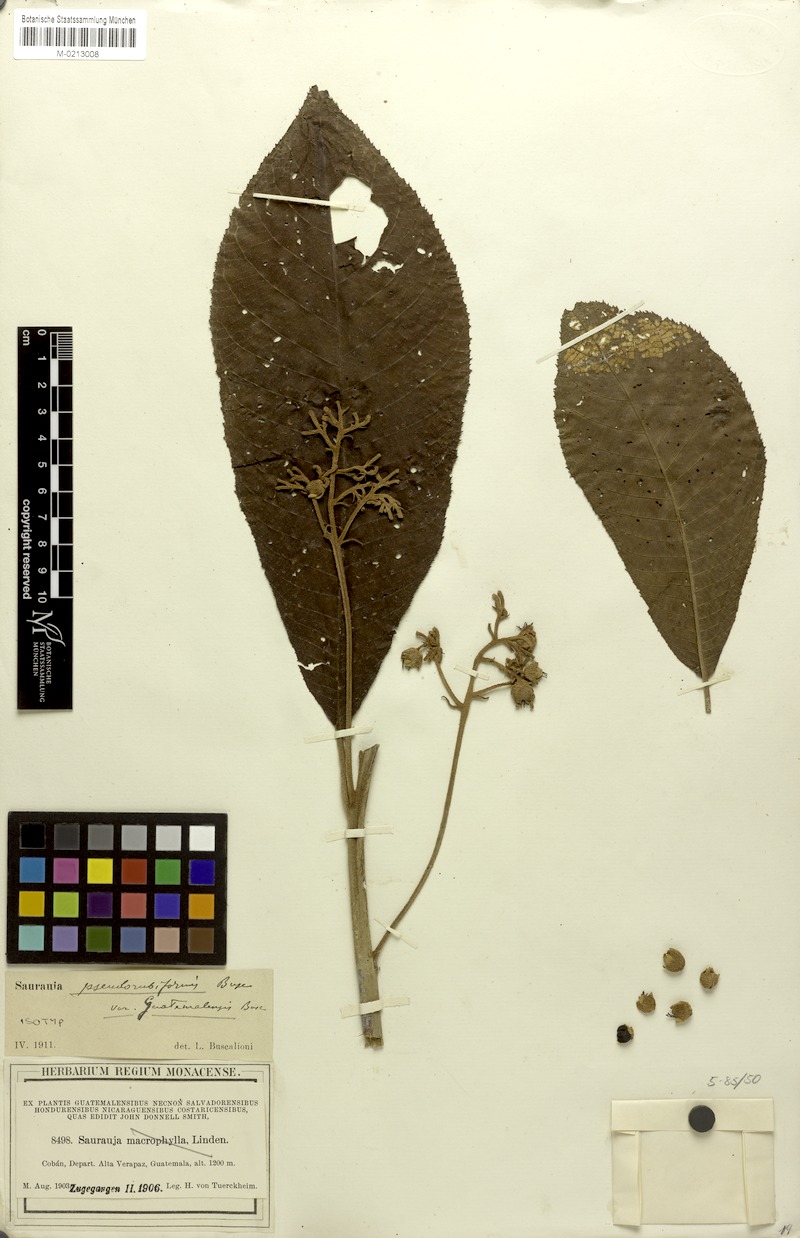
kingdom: Plantae
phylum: Tracheophyta
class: Magnoliopsida
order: Ericales
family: Actinidiaceae
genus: Saurauia
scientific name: Saurauia rubiformis
